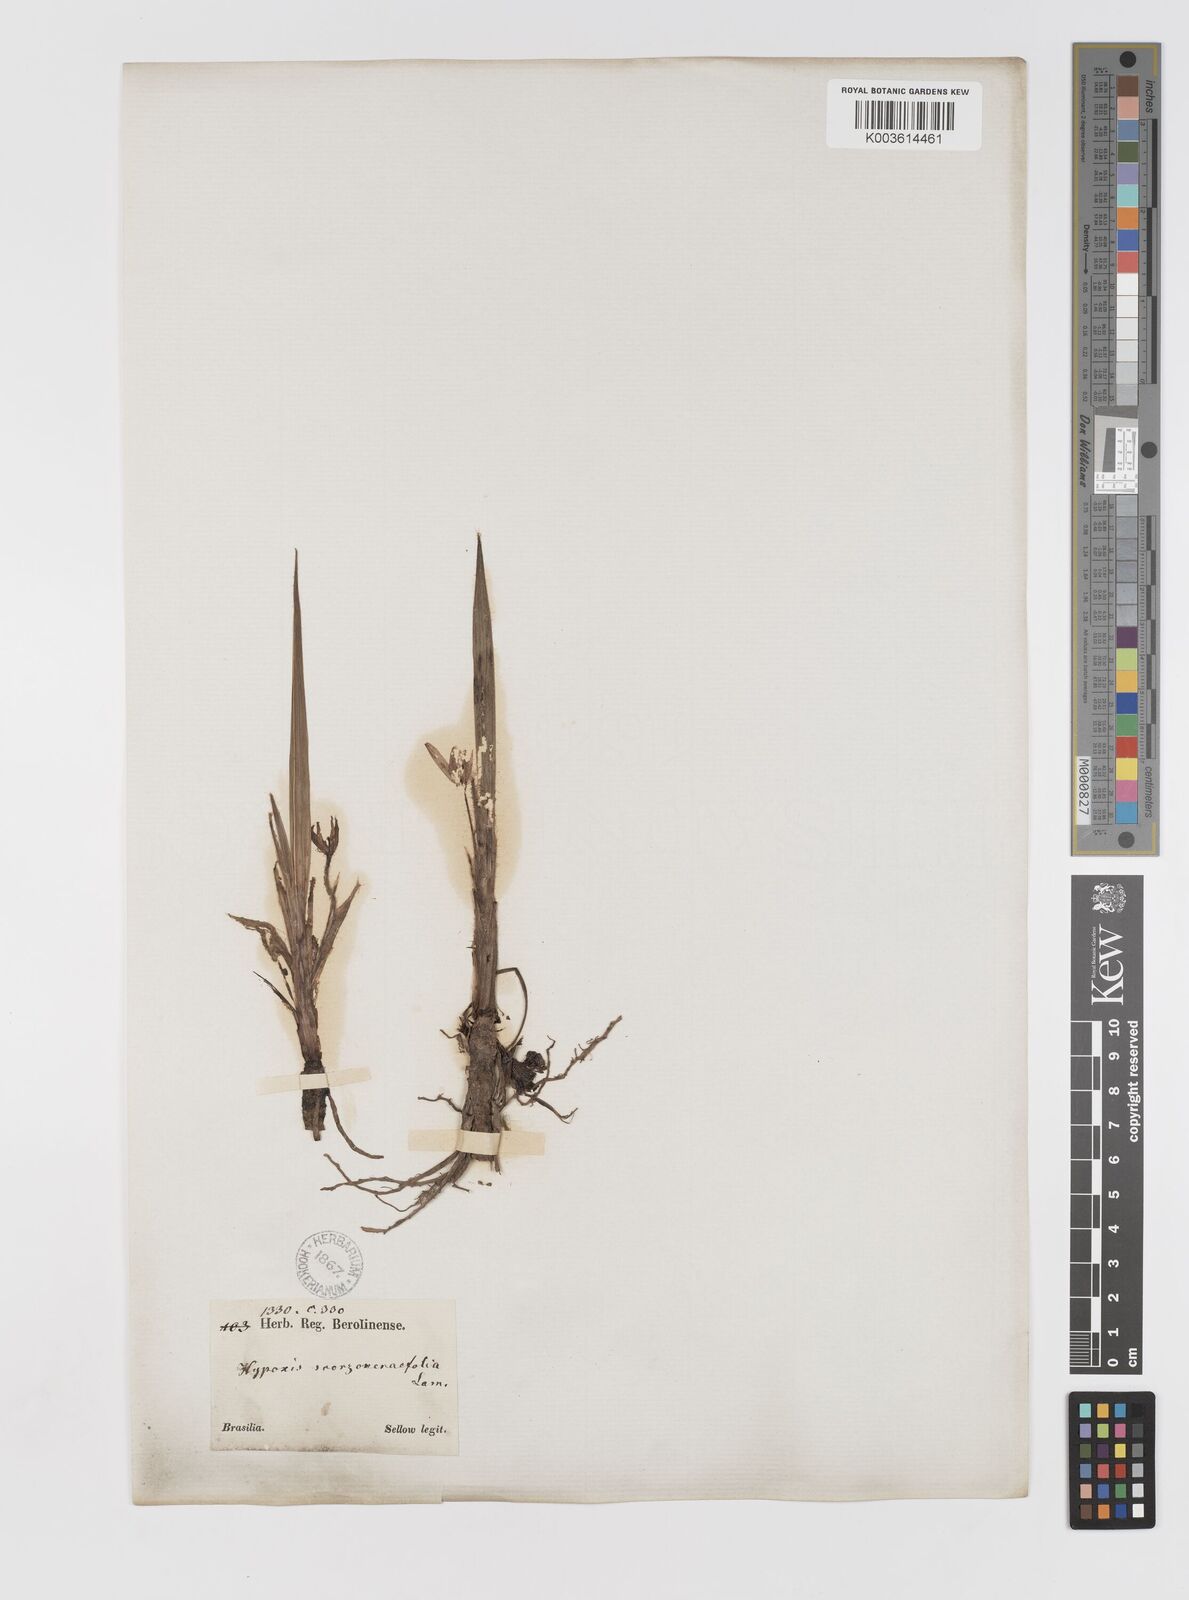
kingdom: Plantae
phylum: Tracheophyta
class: Liliopsida
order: Asparagales
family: Hypoxidaceae
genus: Curculigo
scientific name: Curculigo scorzonerifolia
